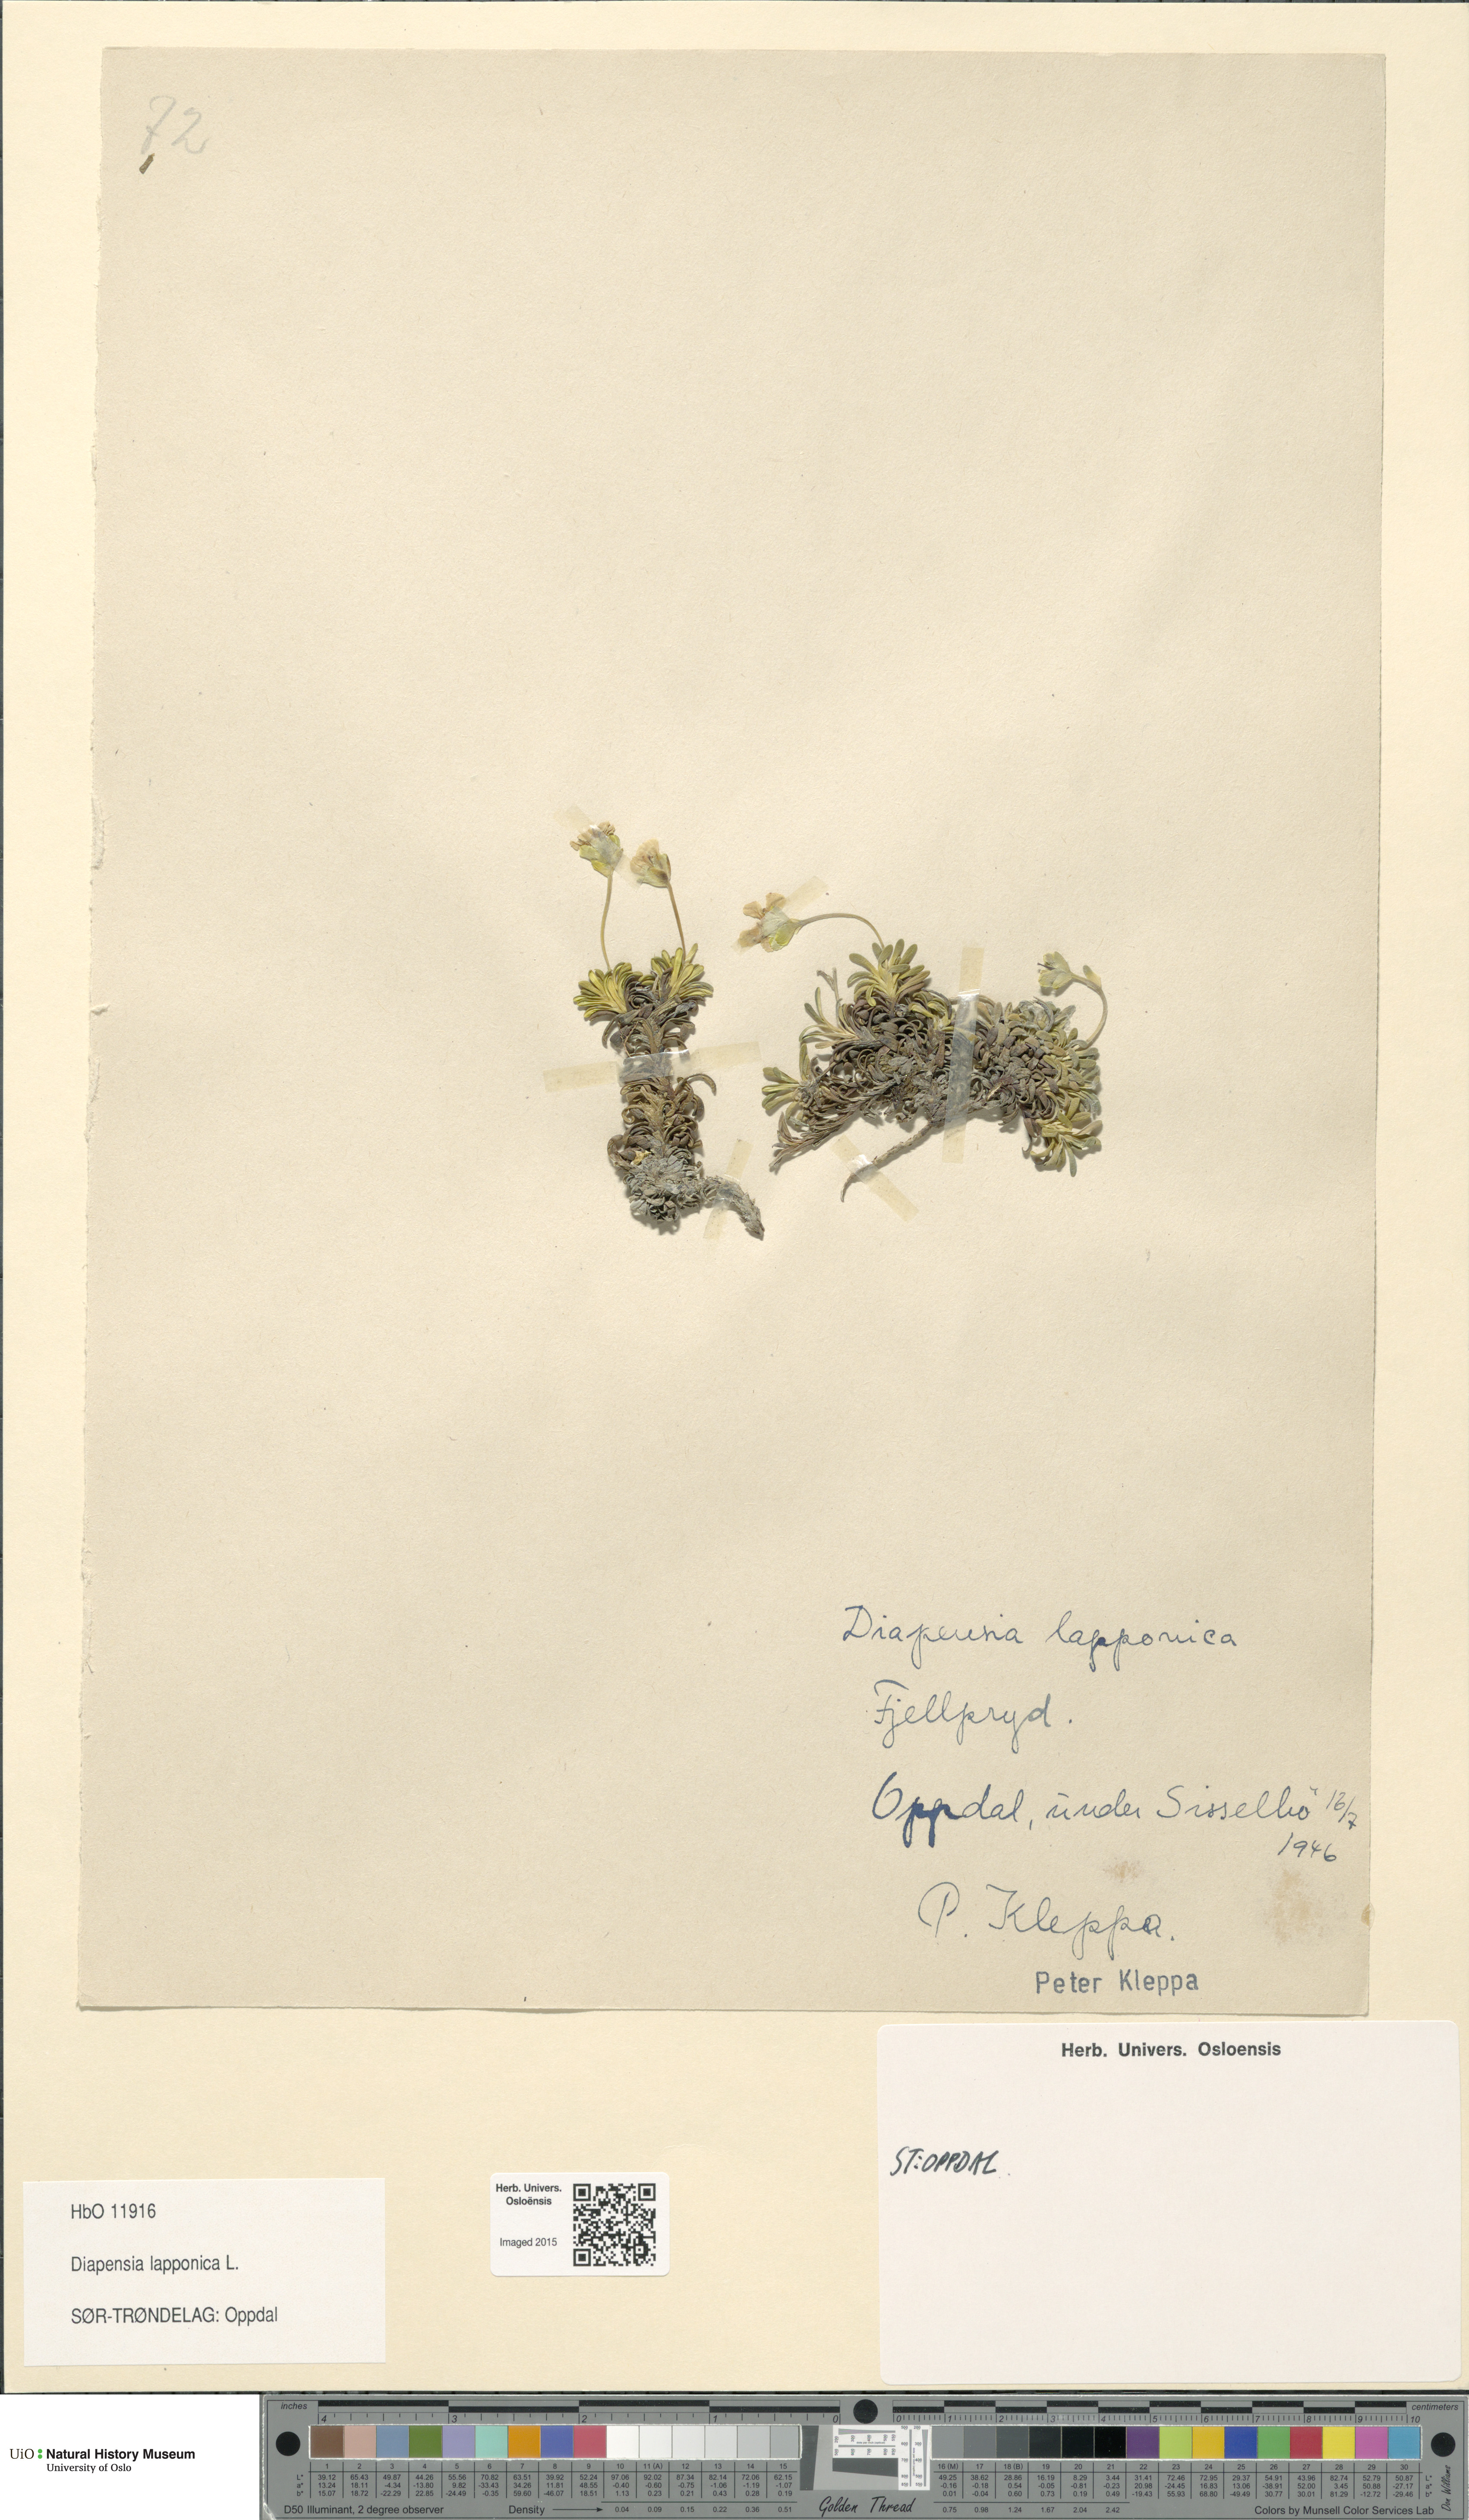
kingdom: Plantae
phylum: Tracheophyta
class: Magnoliopsida
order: Ericales
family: Diapensiaceae
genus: Diapensia
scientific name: Diapensia lapponica
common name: Diapensia
